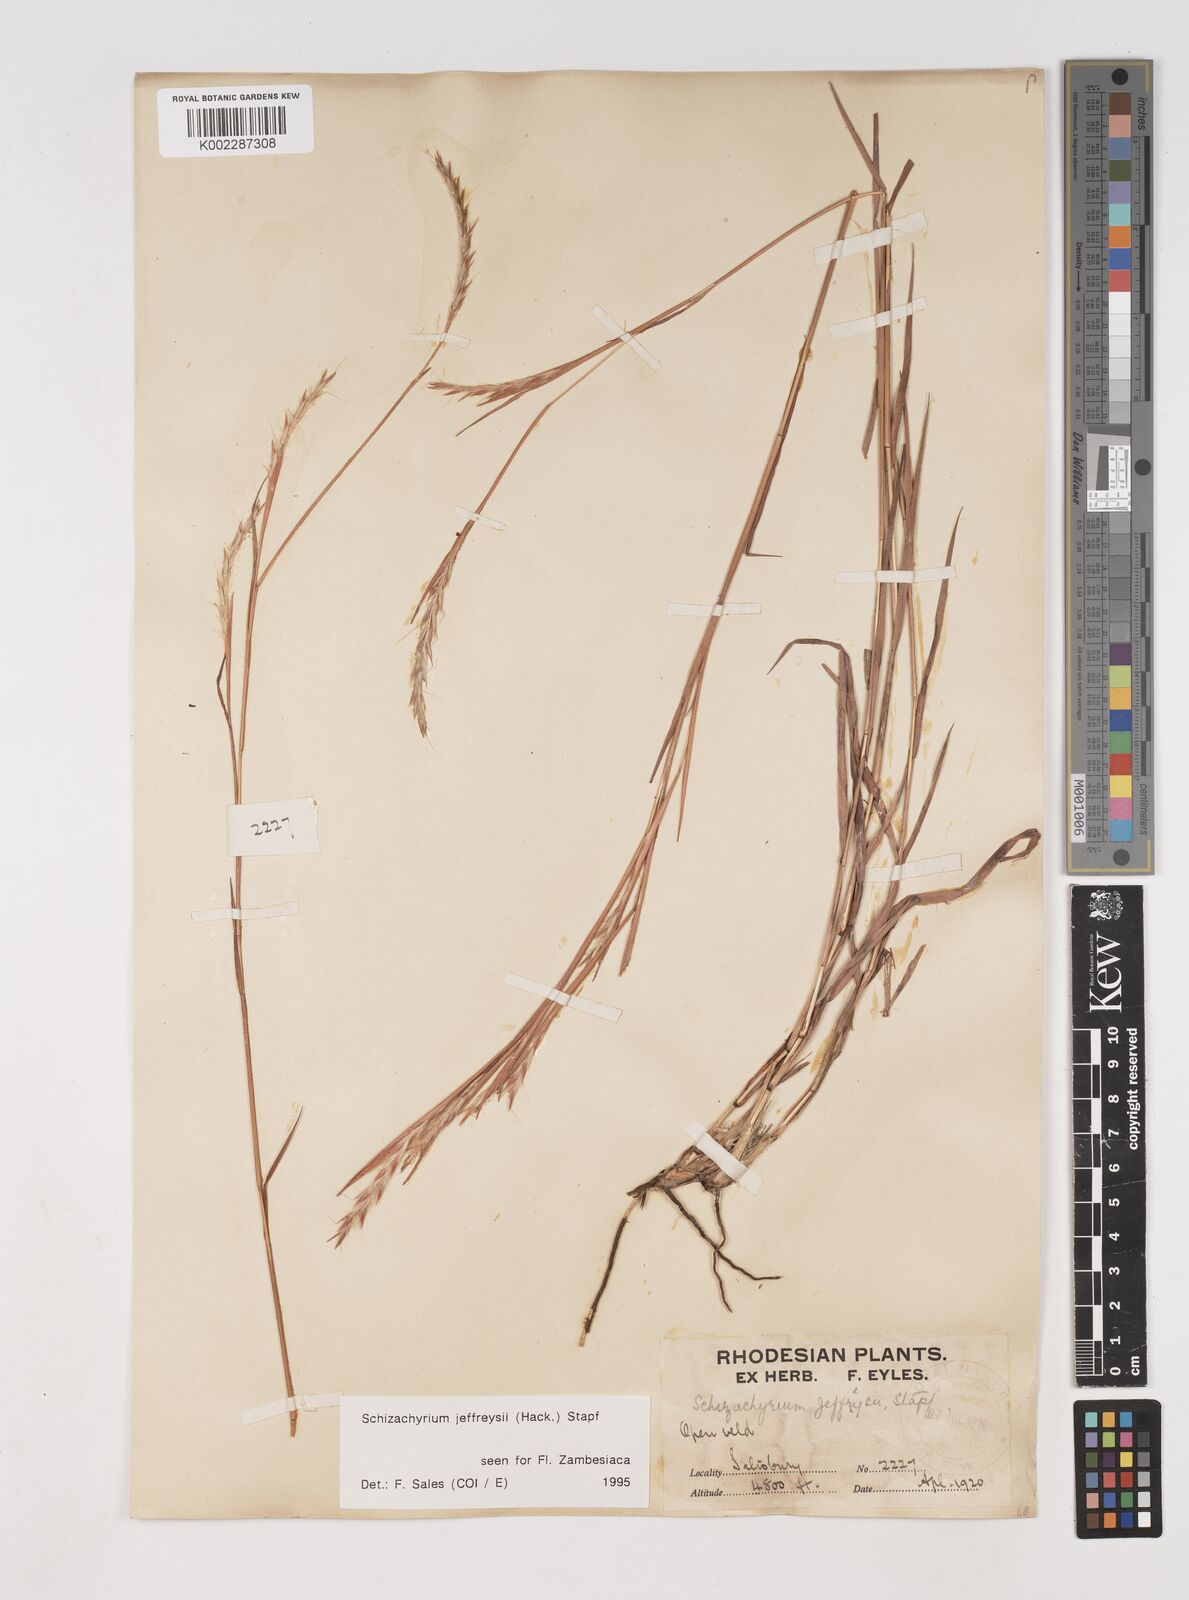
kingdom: Plantae
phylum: Tracheophyta
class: Liliopsida
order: Poales
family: Poaceae
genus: Schizachyrium
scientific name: Schizachyrium jeffreysii
